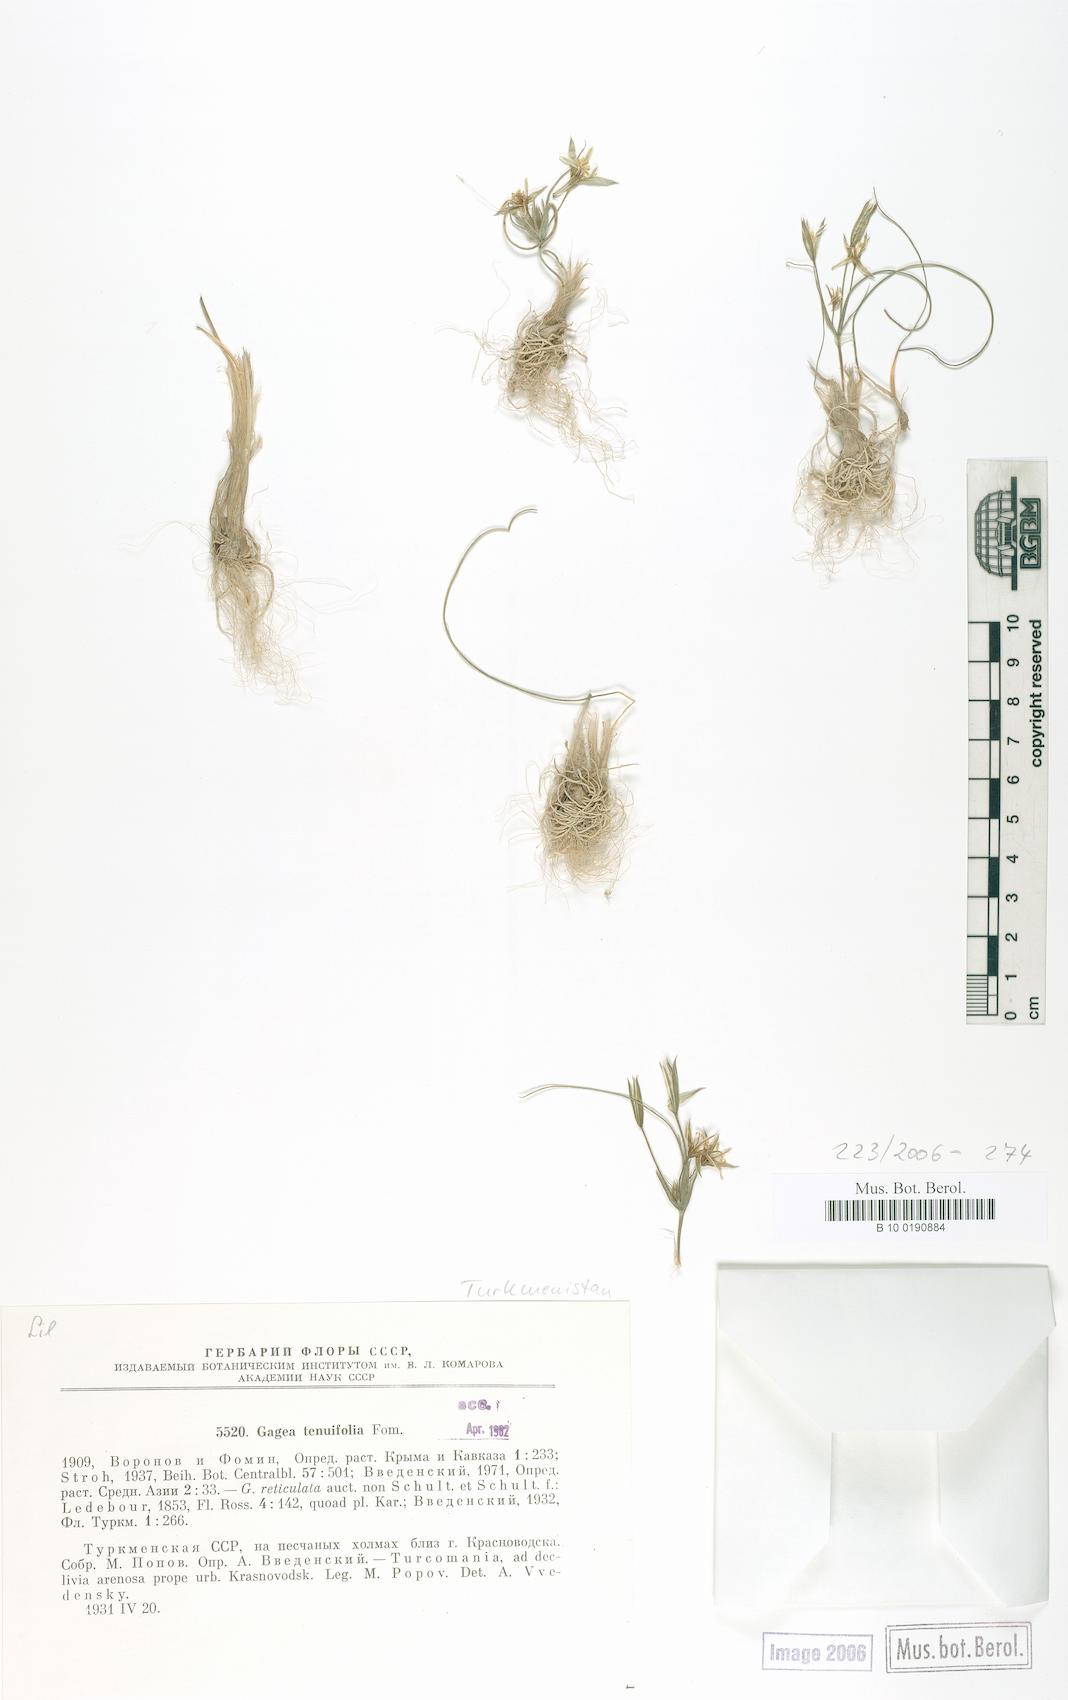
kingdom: Plantae
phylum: Tracheophyta
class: Liliopsida
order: Liliales
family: Liliaceae
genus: Gagea
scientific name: Gagea reticulata
